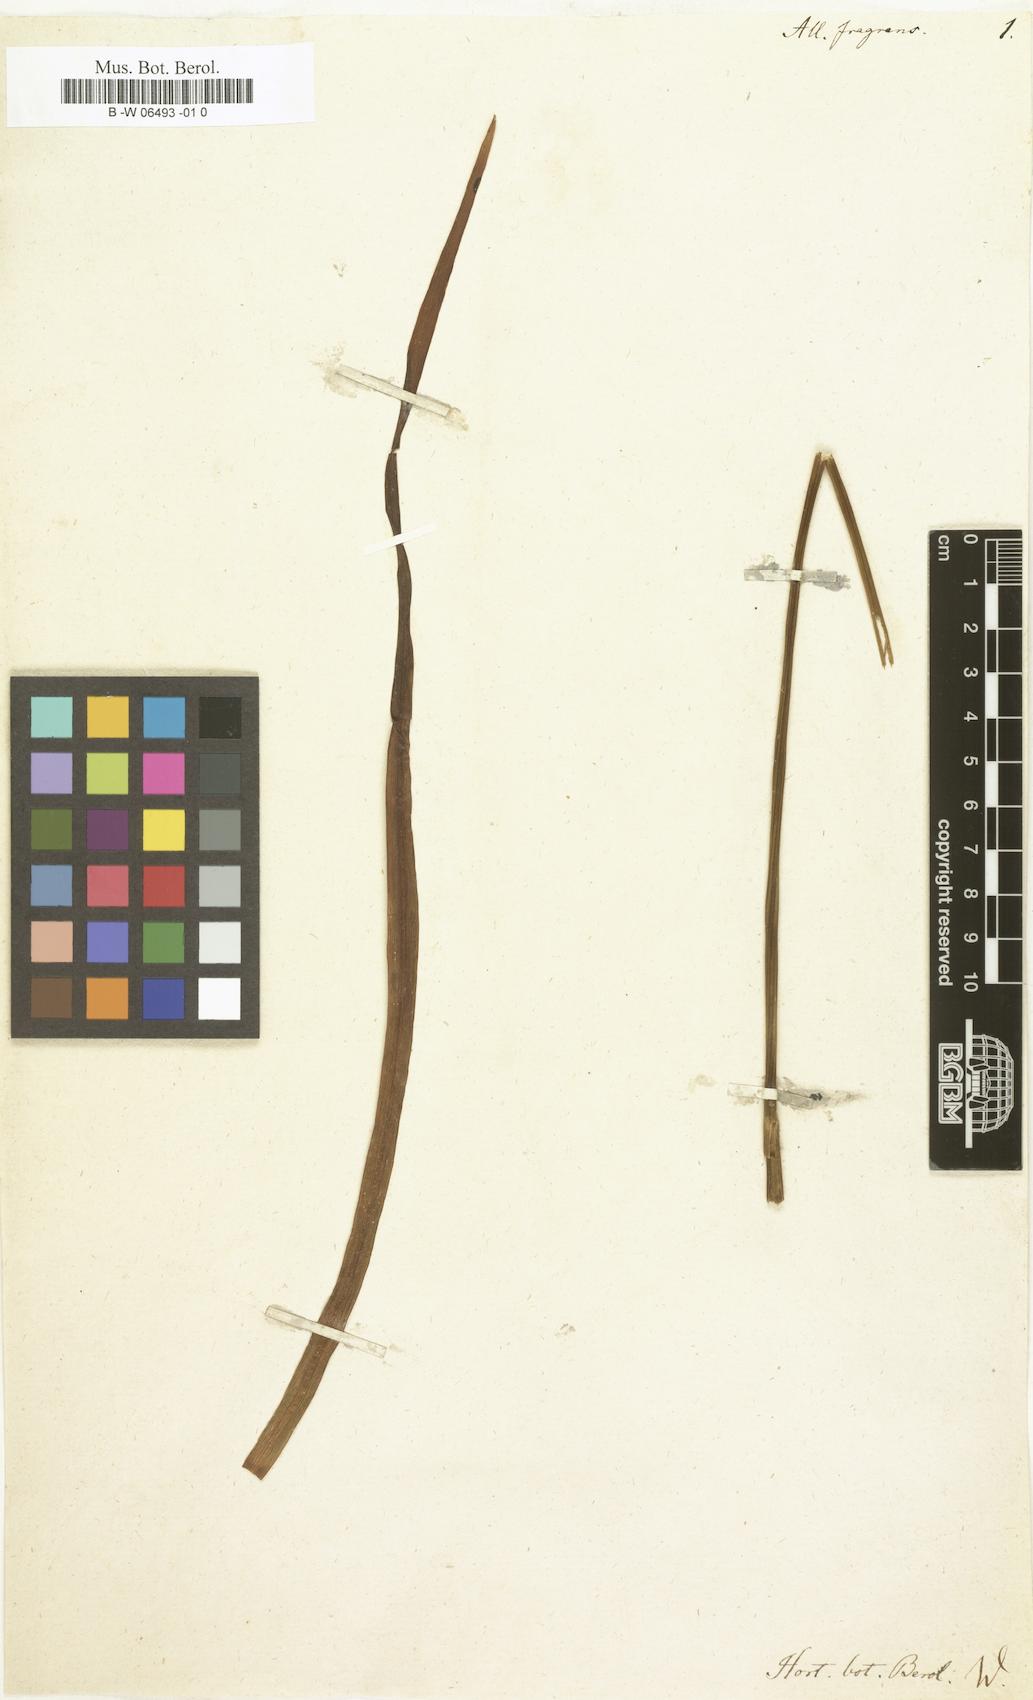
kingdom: Plantae
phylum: Tracheophyta
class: Liliopsida
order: Asparagales
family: Amaryllidaceae
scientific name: Amaryllidaceae
